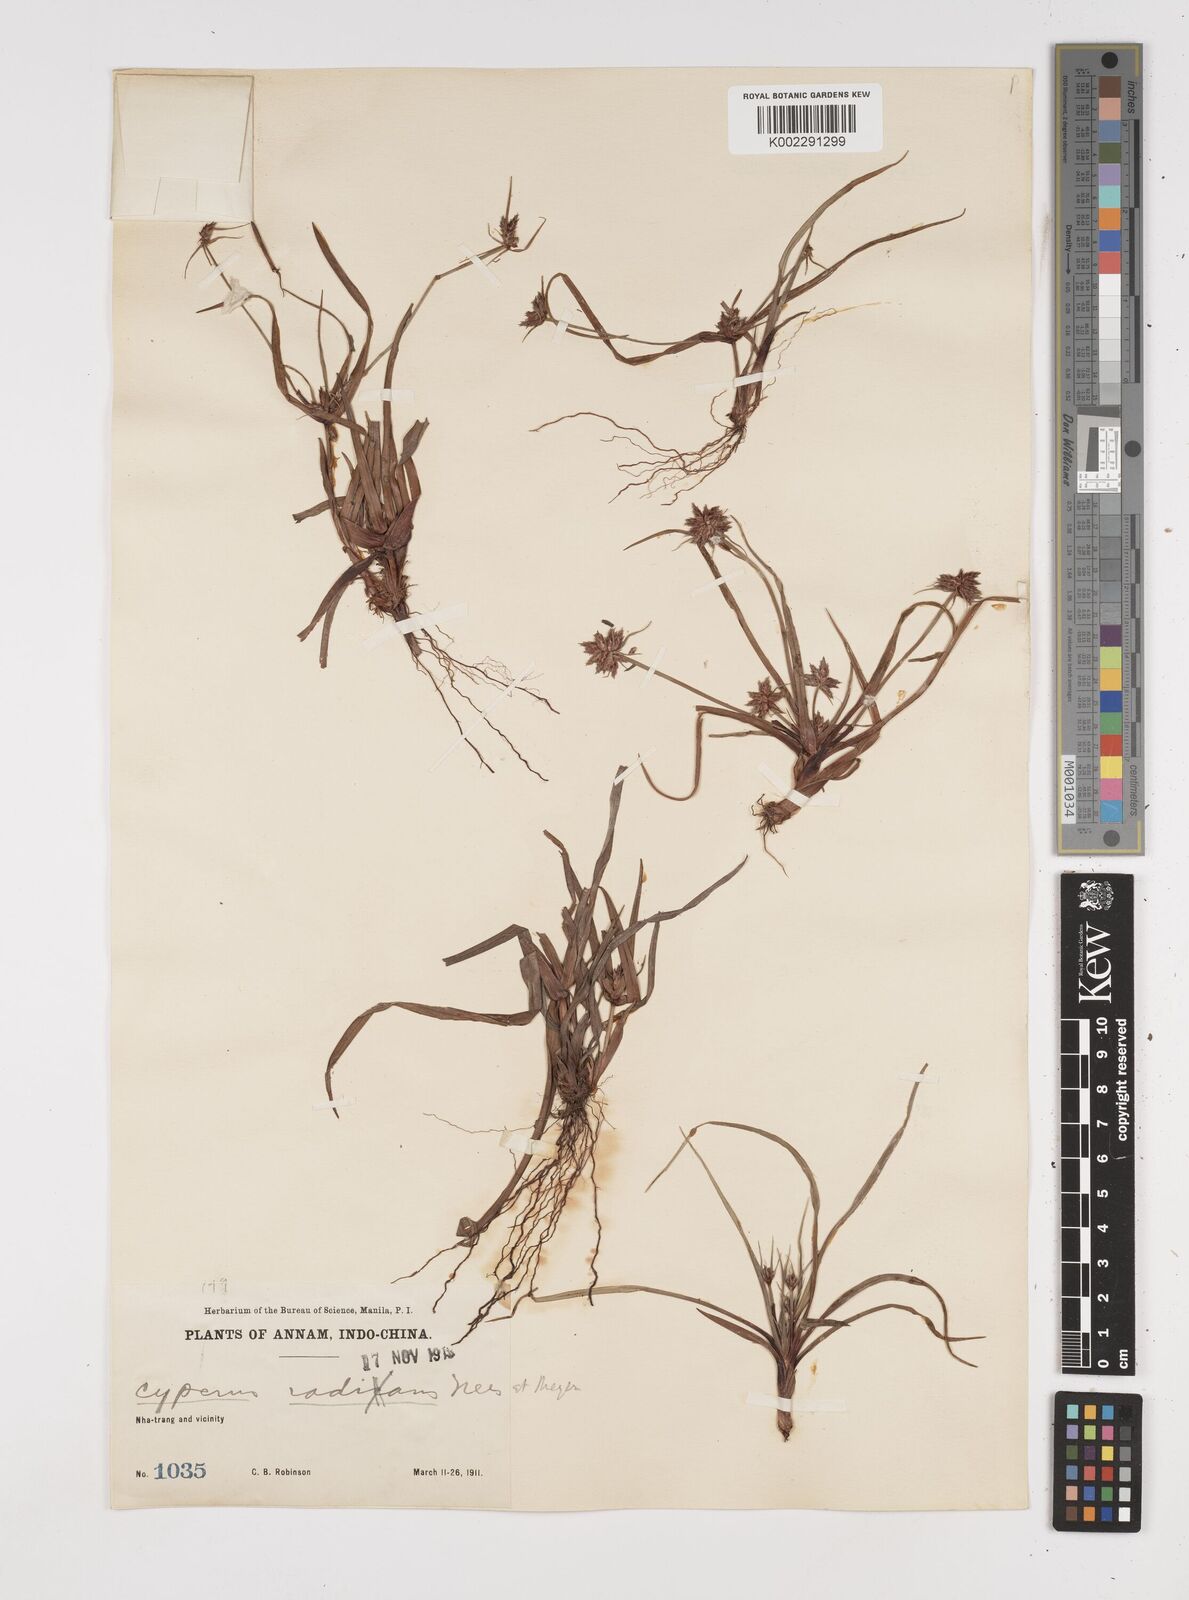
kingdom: Plantae
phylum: Tracheophyta
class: Liliopsida
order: Poales
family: Cyperaceae
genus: Cyperus
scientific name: Cyperus radians
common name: Short-stem cyperus
